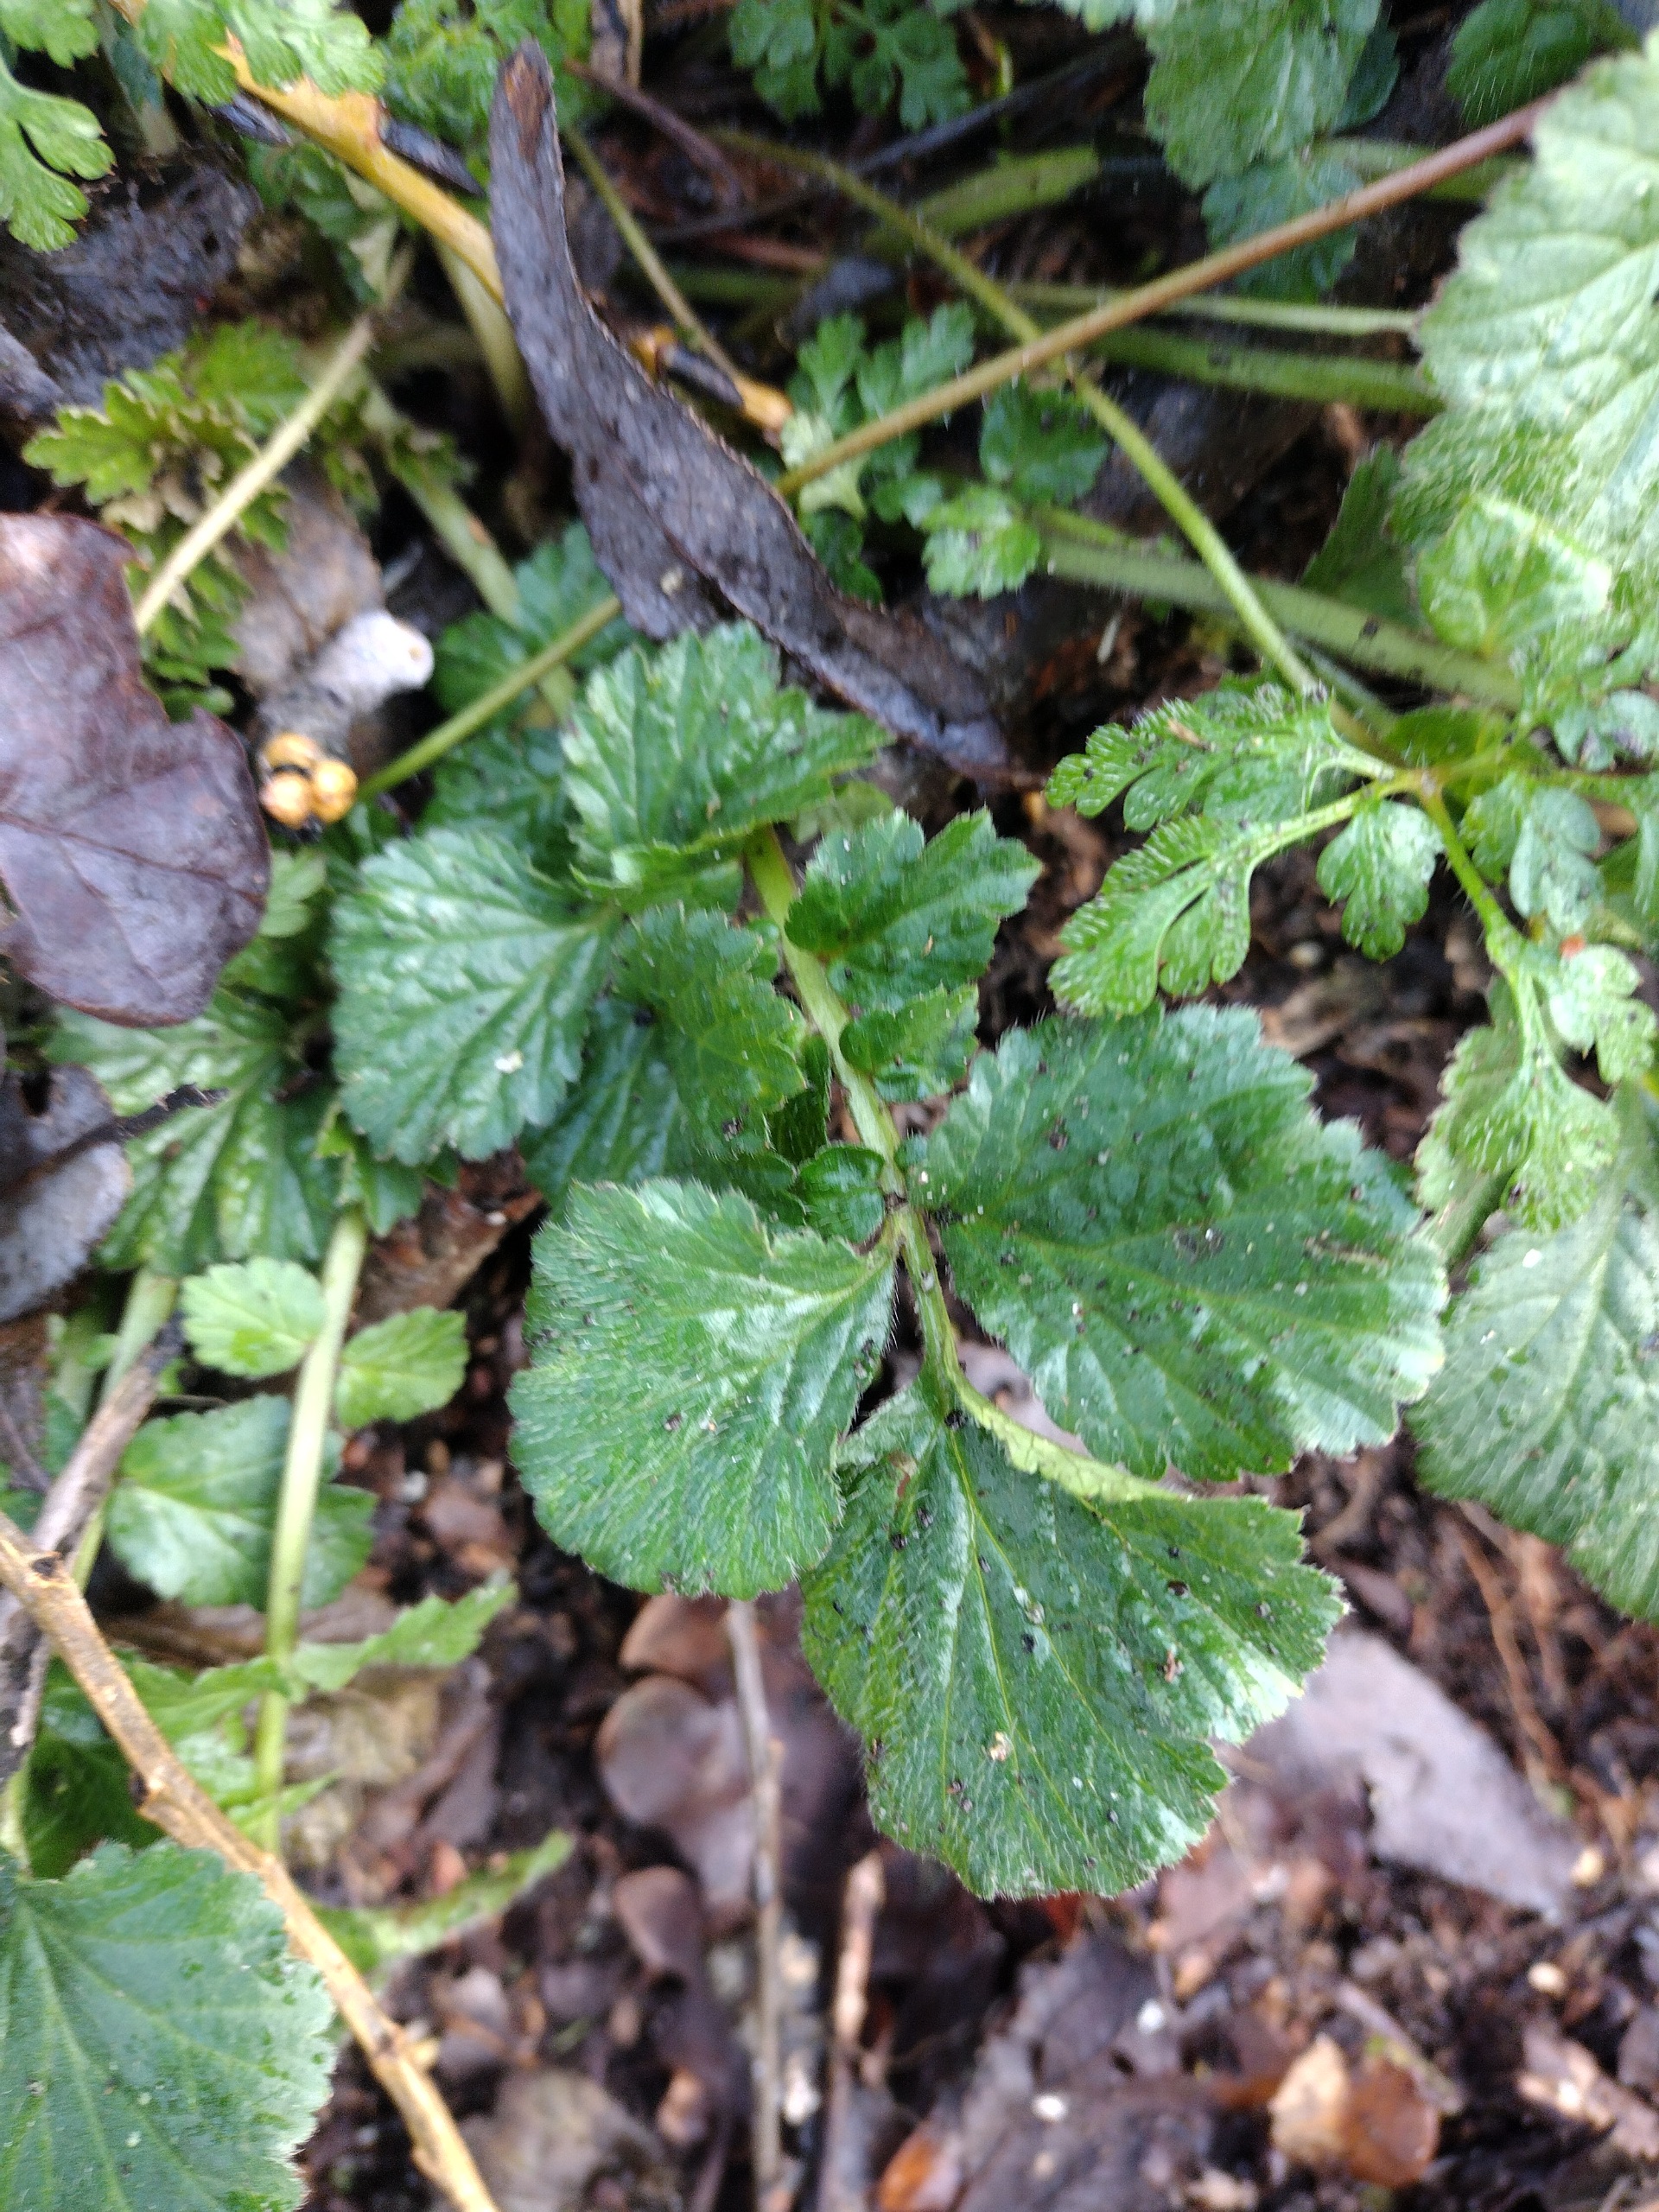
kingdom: Plantae
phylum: Tracheophyta
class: Magnoliopsida
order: Rosales
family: Rosaceae
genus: Geum
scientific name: Geum urbanum
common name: Feber-nellikerod
